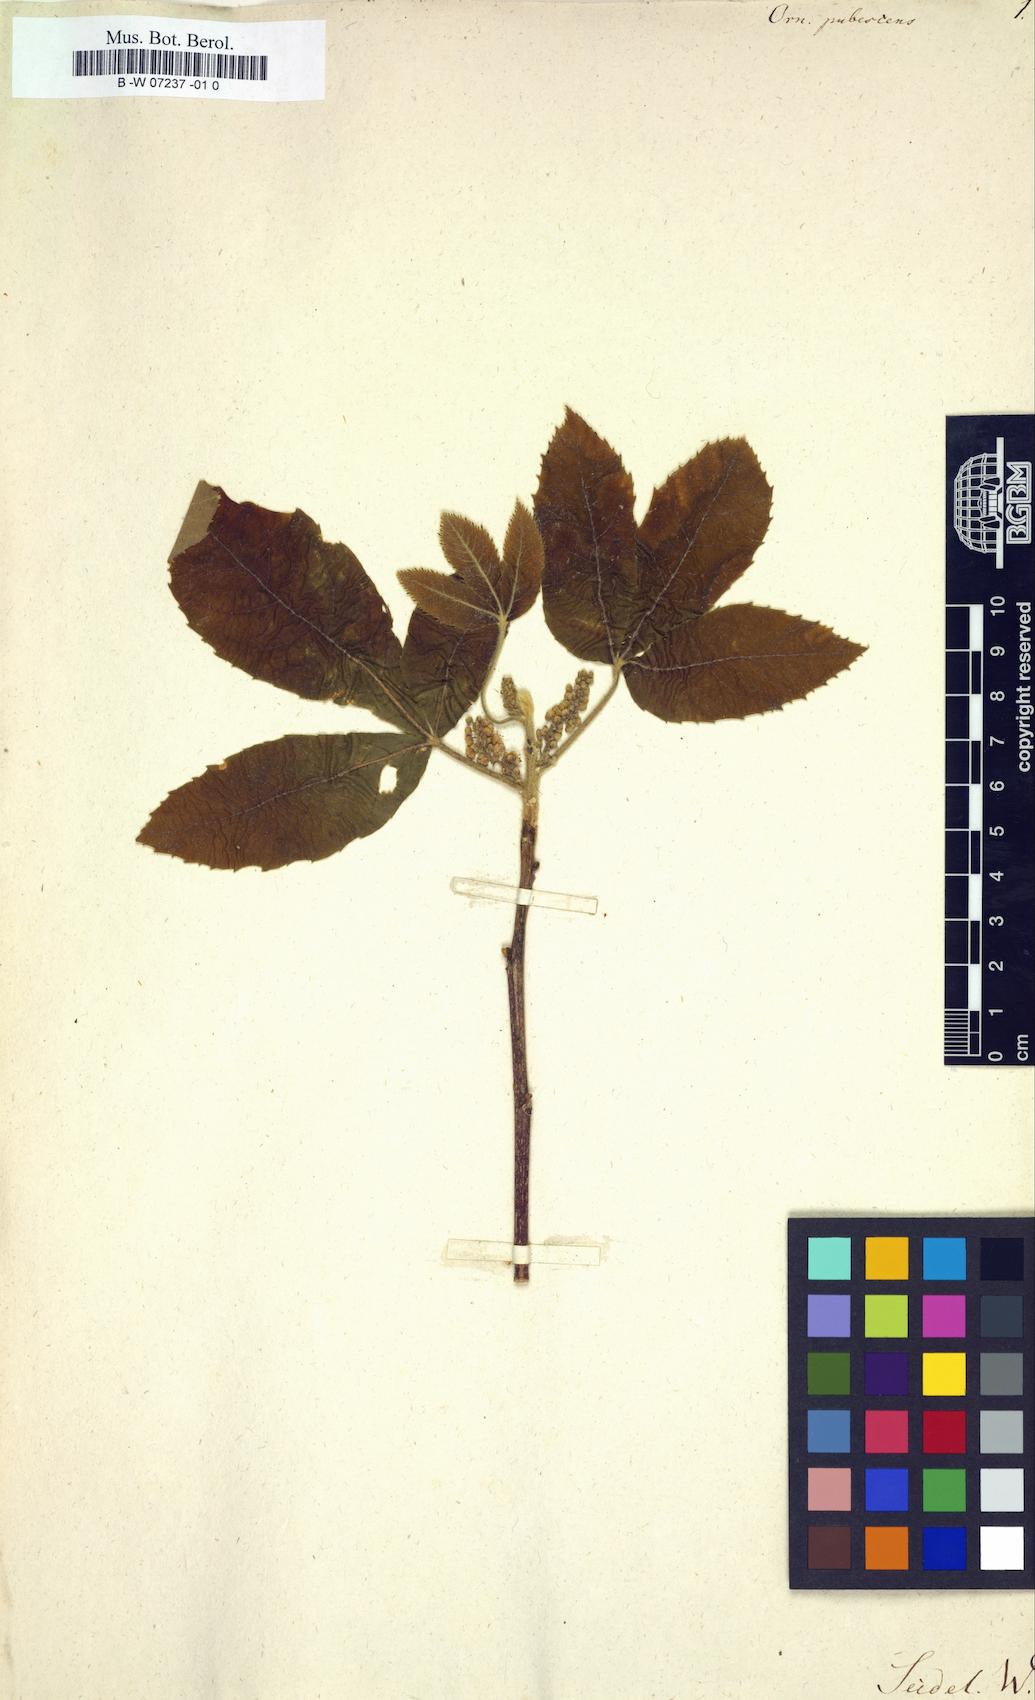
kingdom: Plantae
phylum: Tracheophyta
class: Magnoliopsida
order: Sapindales
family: Sapindaceae
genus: Allophylus
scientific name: Allophylus
